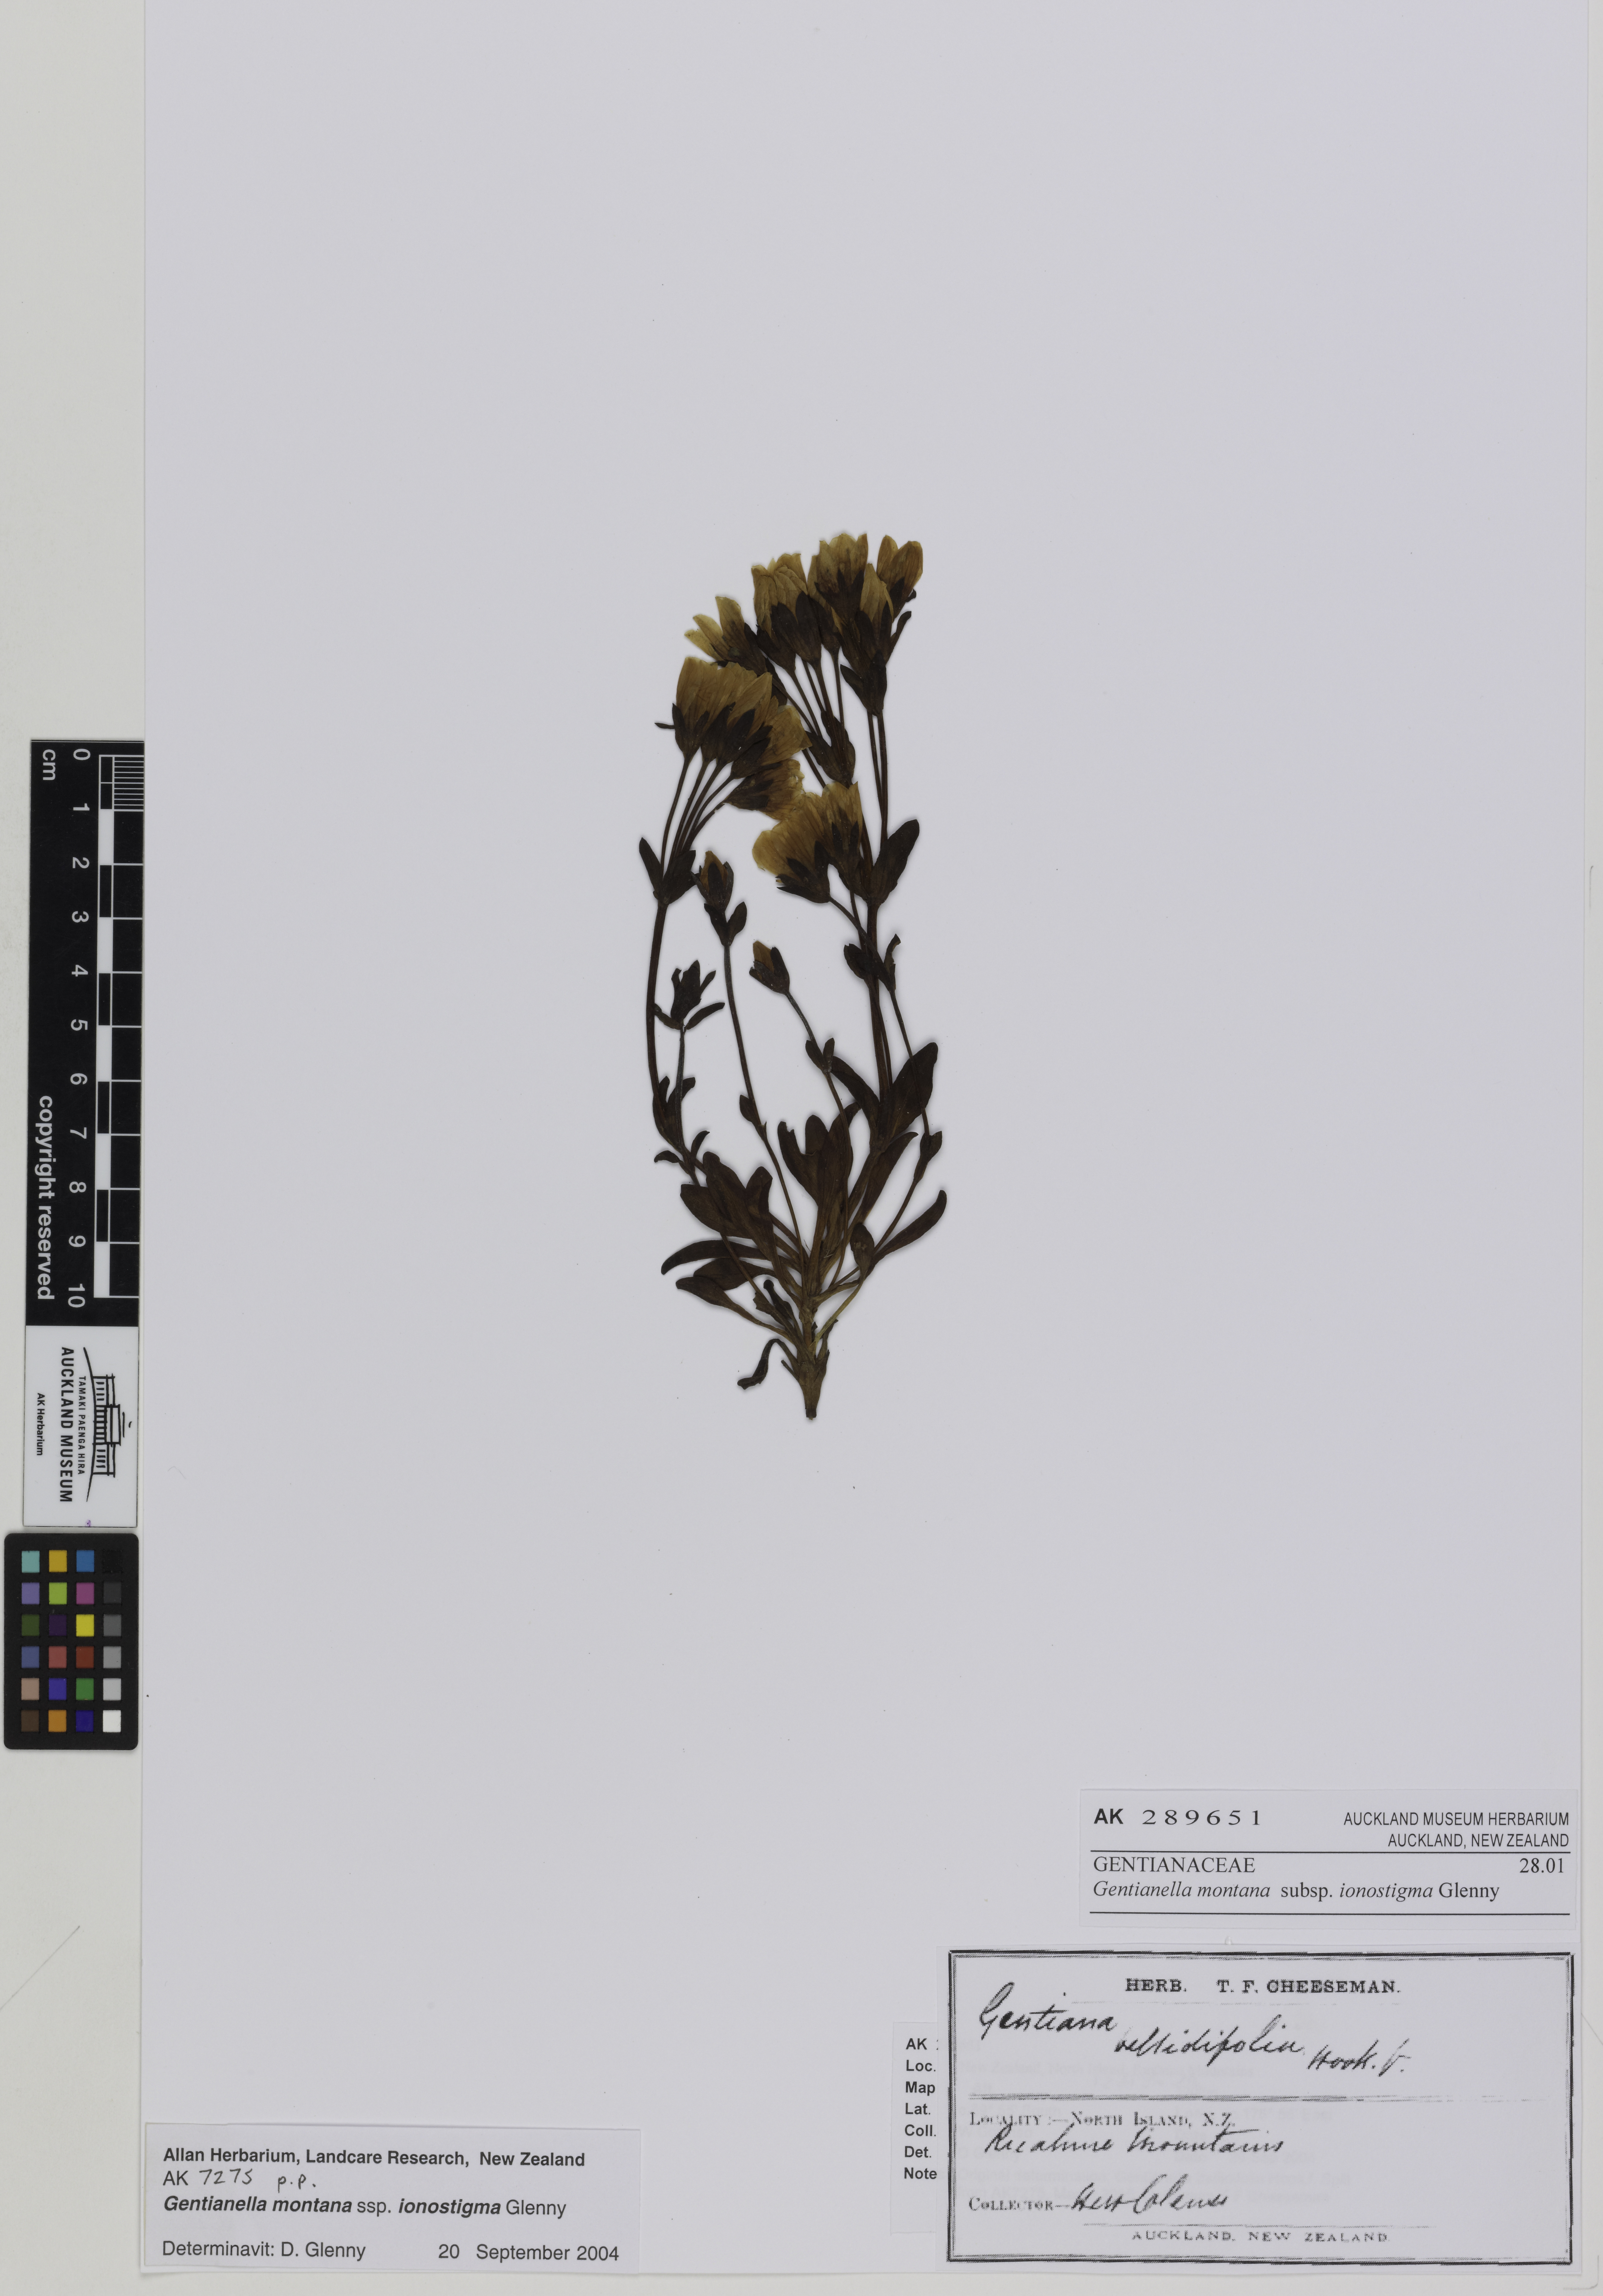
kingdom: Plantae
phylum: Tracheophyta
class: Magnoliopsida
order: Gentianales
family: Gentianaceae
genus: Gentianella
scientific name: Gentianella montana
